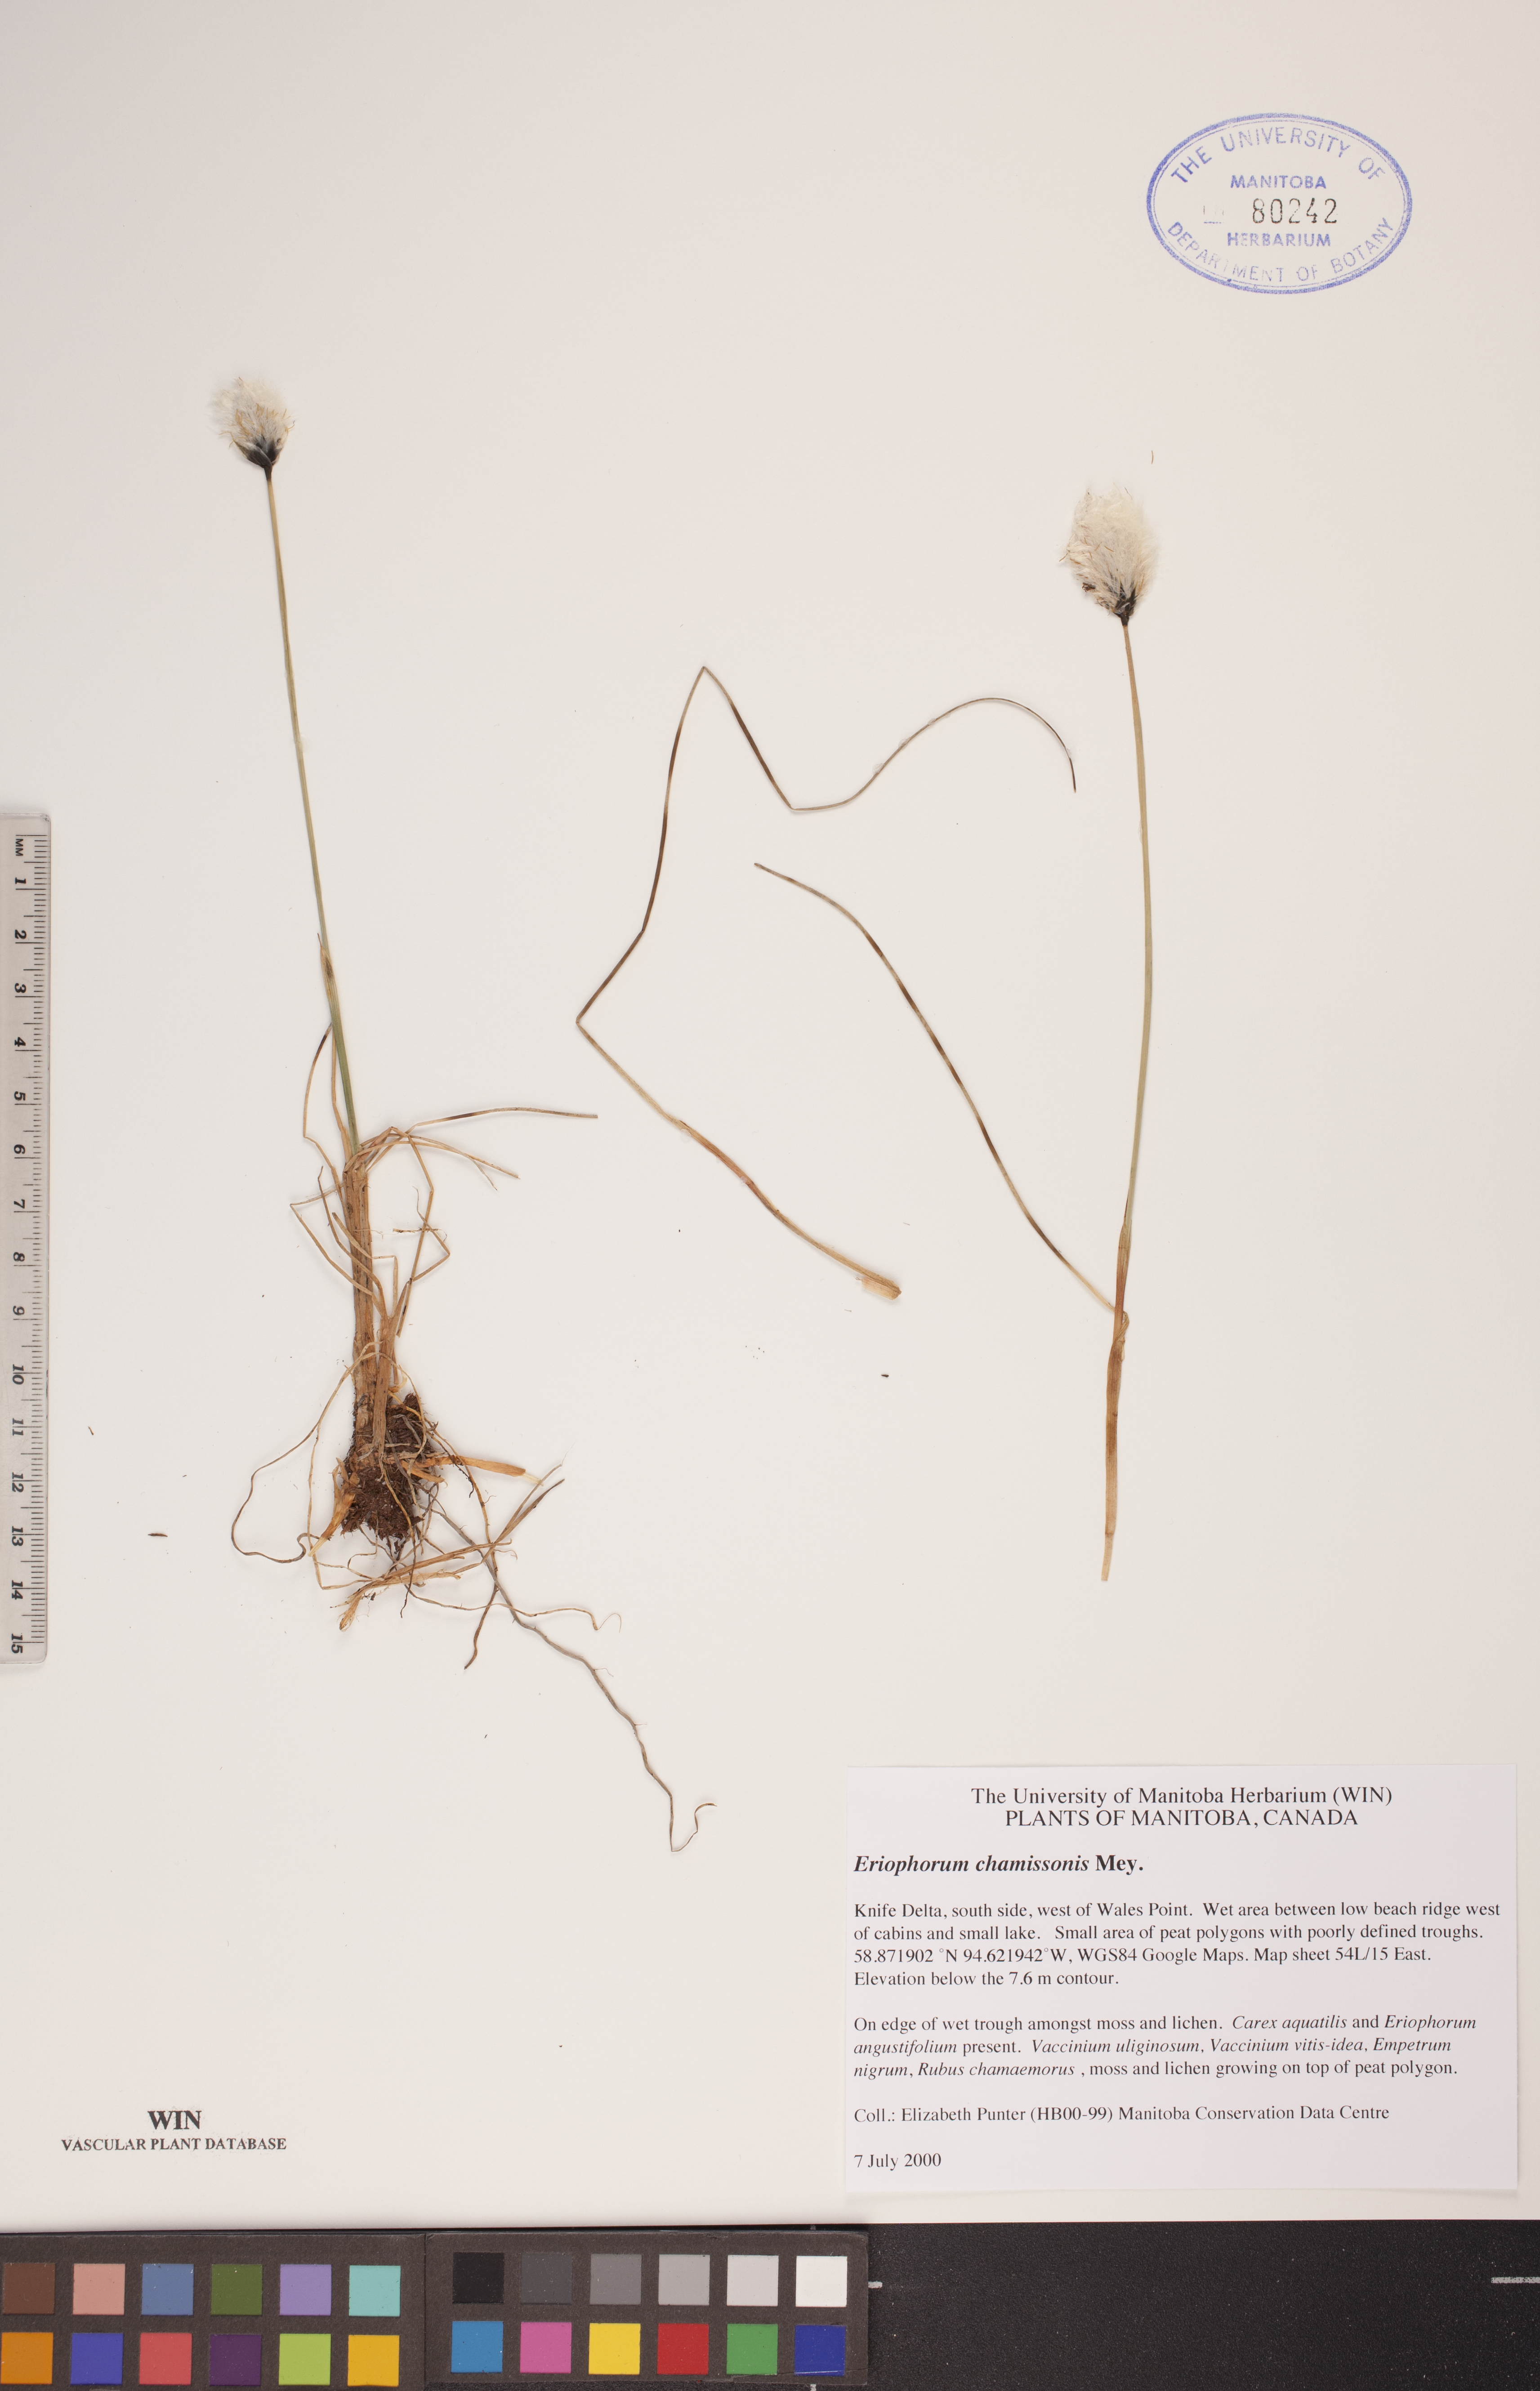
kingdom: Plantae
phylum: Tracheophyta
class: Liliopsida
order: Poales
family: Cyperaceae
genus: Eriophorum
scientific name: Eriophorum chamissonis
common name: Chamisso's cottongrass
